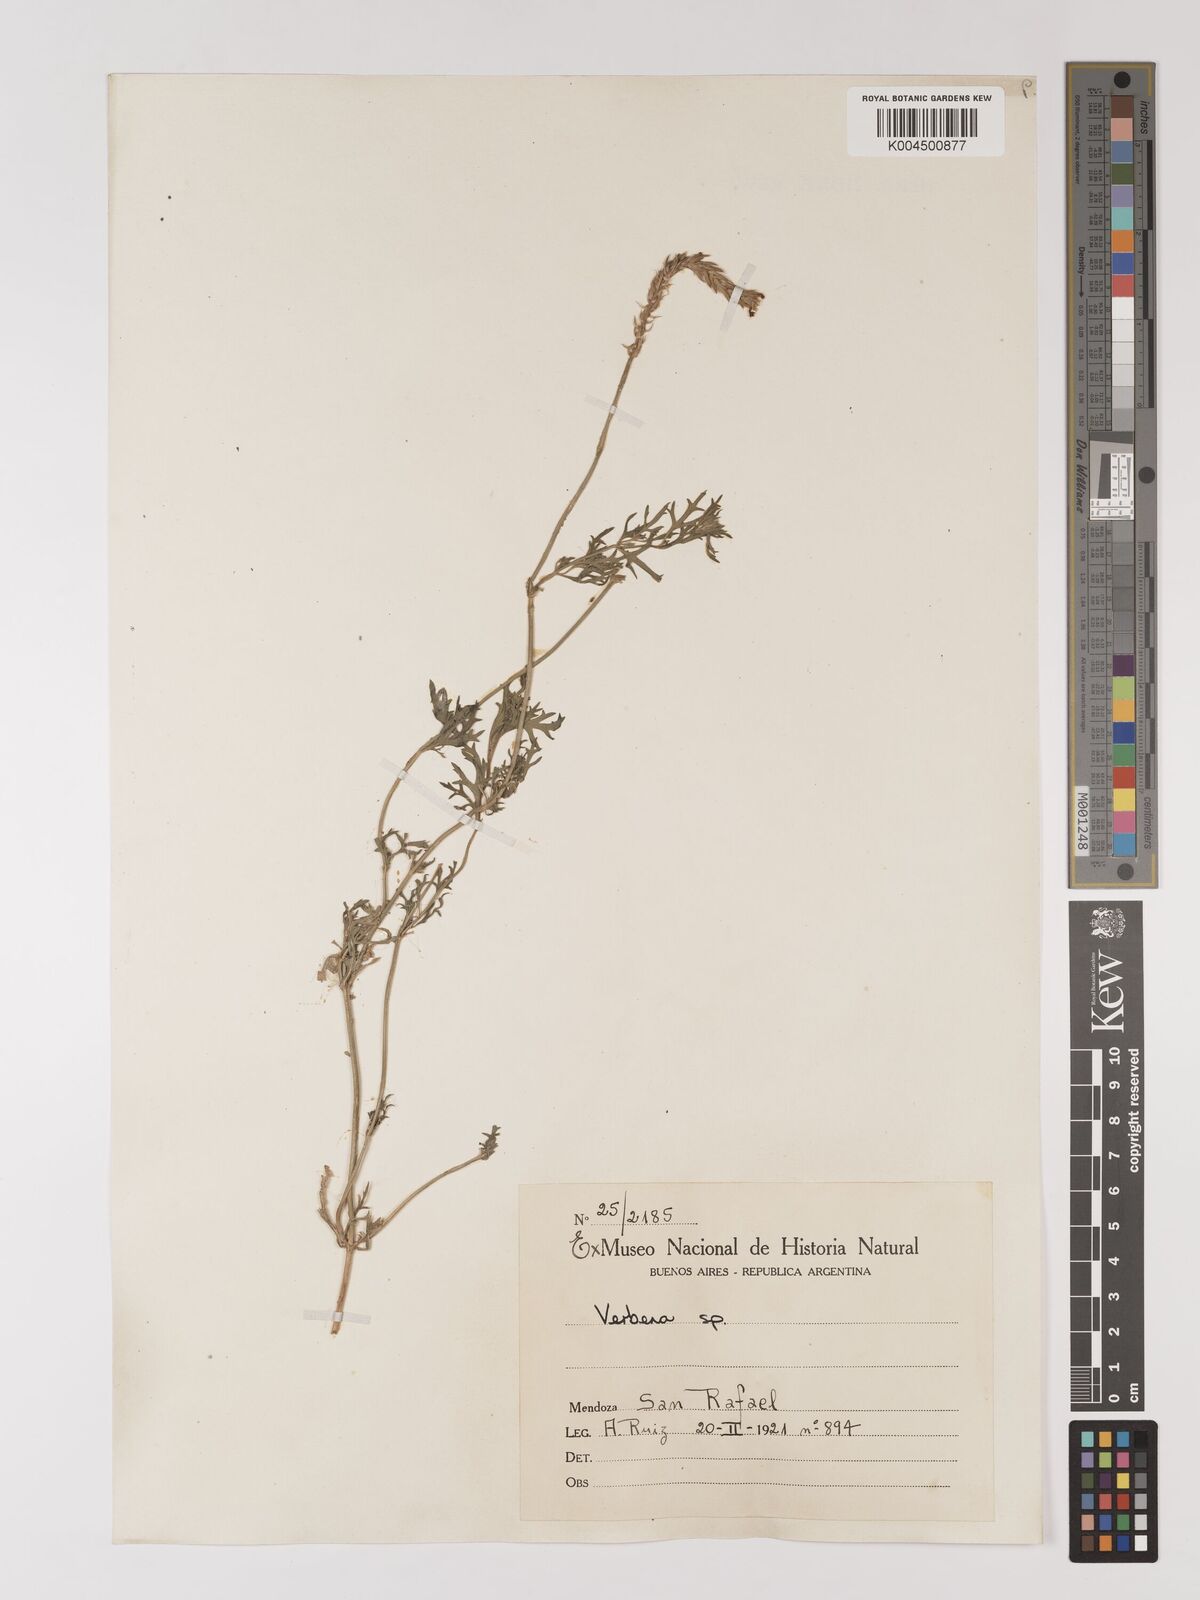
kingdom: Plantae
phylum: Tracheophyta
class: Magnoliopsida
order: Lamiales
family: Verbenaceae
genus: Verbena
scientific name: Verbena
